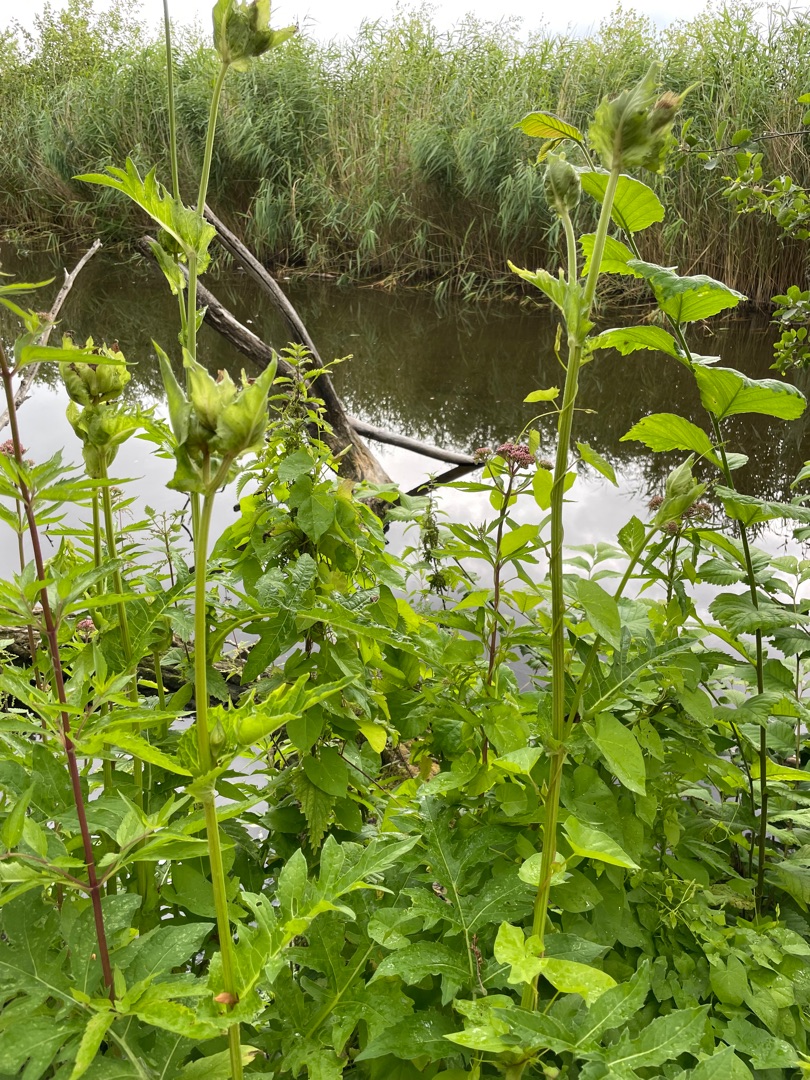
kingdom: Plantae
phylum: Tracheophyta
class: Magnoliopsida
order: Asterales
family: Asteraceae
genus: Cirsium
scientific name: Cirsium oleraceum
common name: Kål-tidsel
